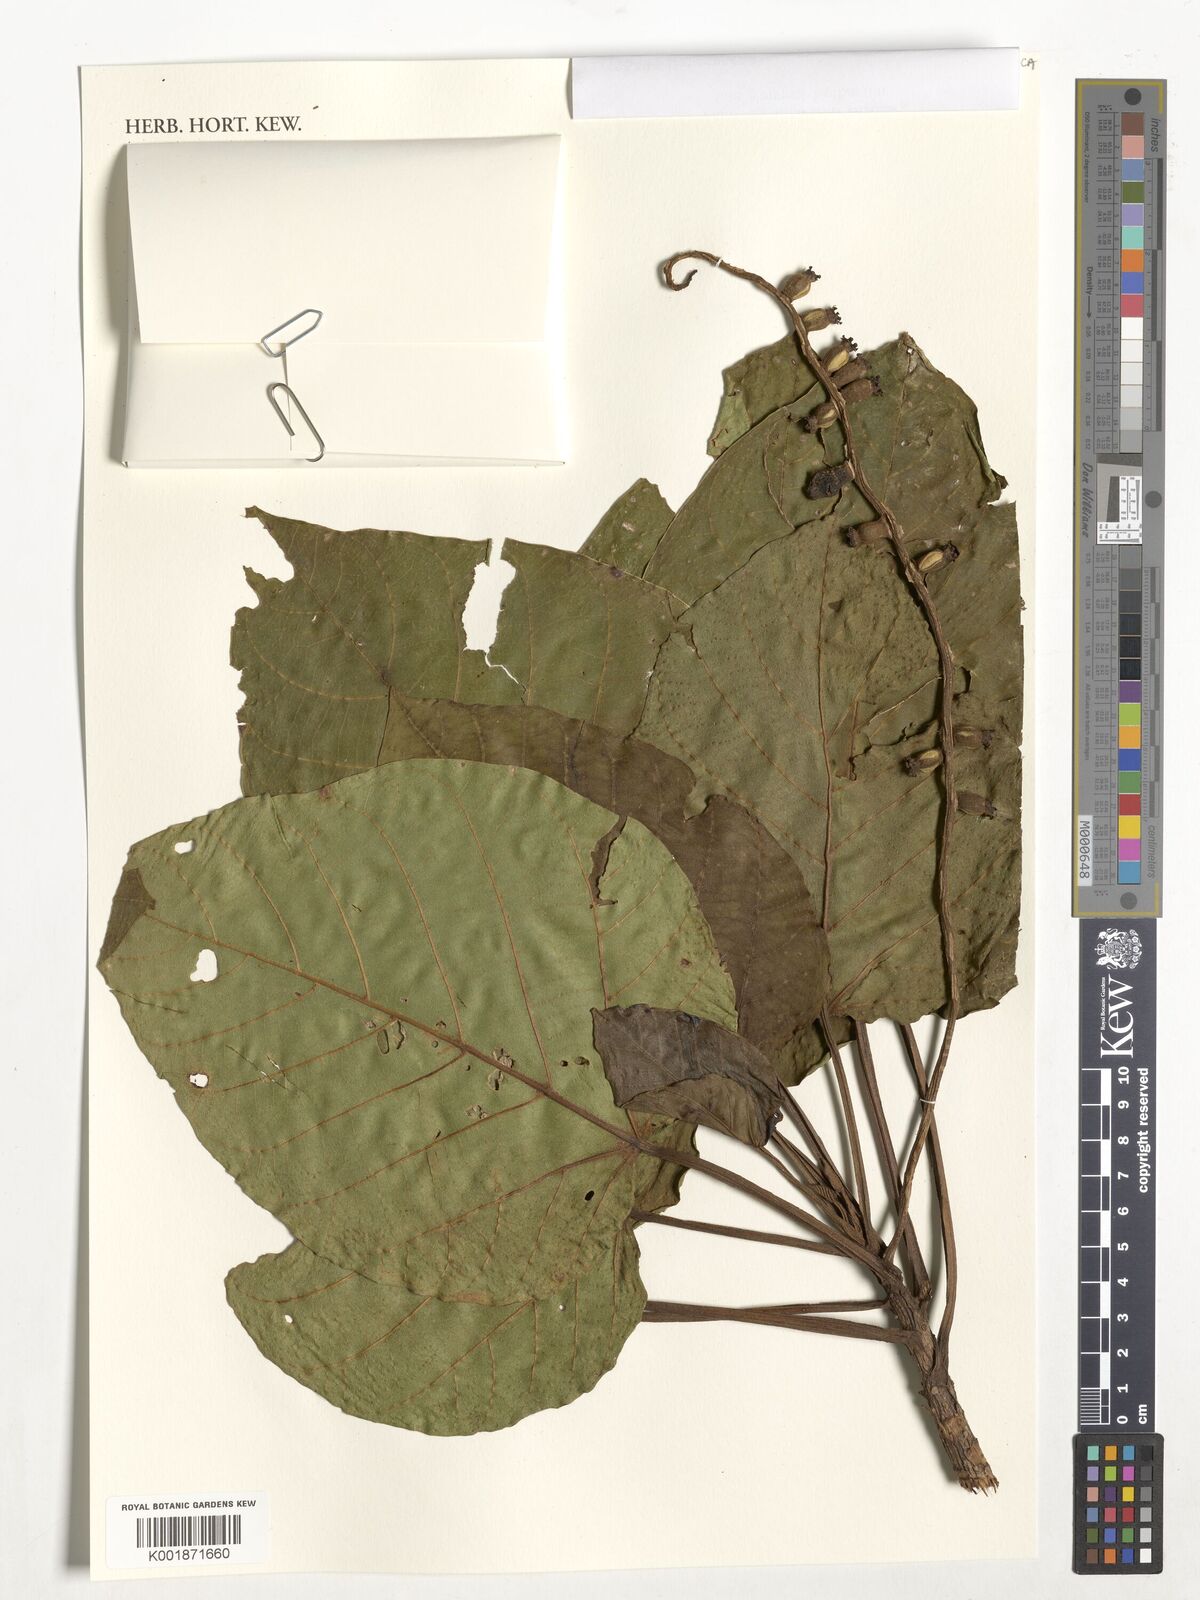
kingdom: Plantae
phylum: Tracheophyta
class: Magnoliopsida
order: Cucurbitales
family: Datiscaceae
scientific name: Datiscaceae
